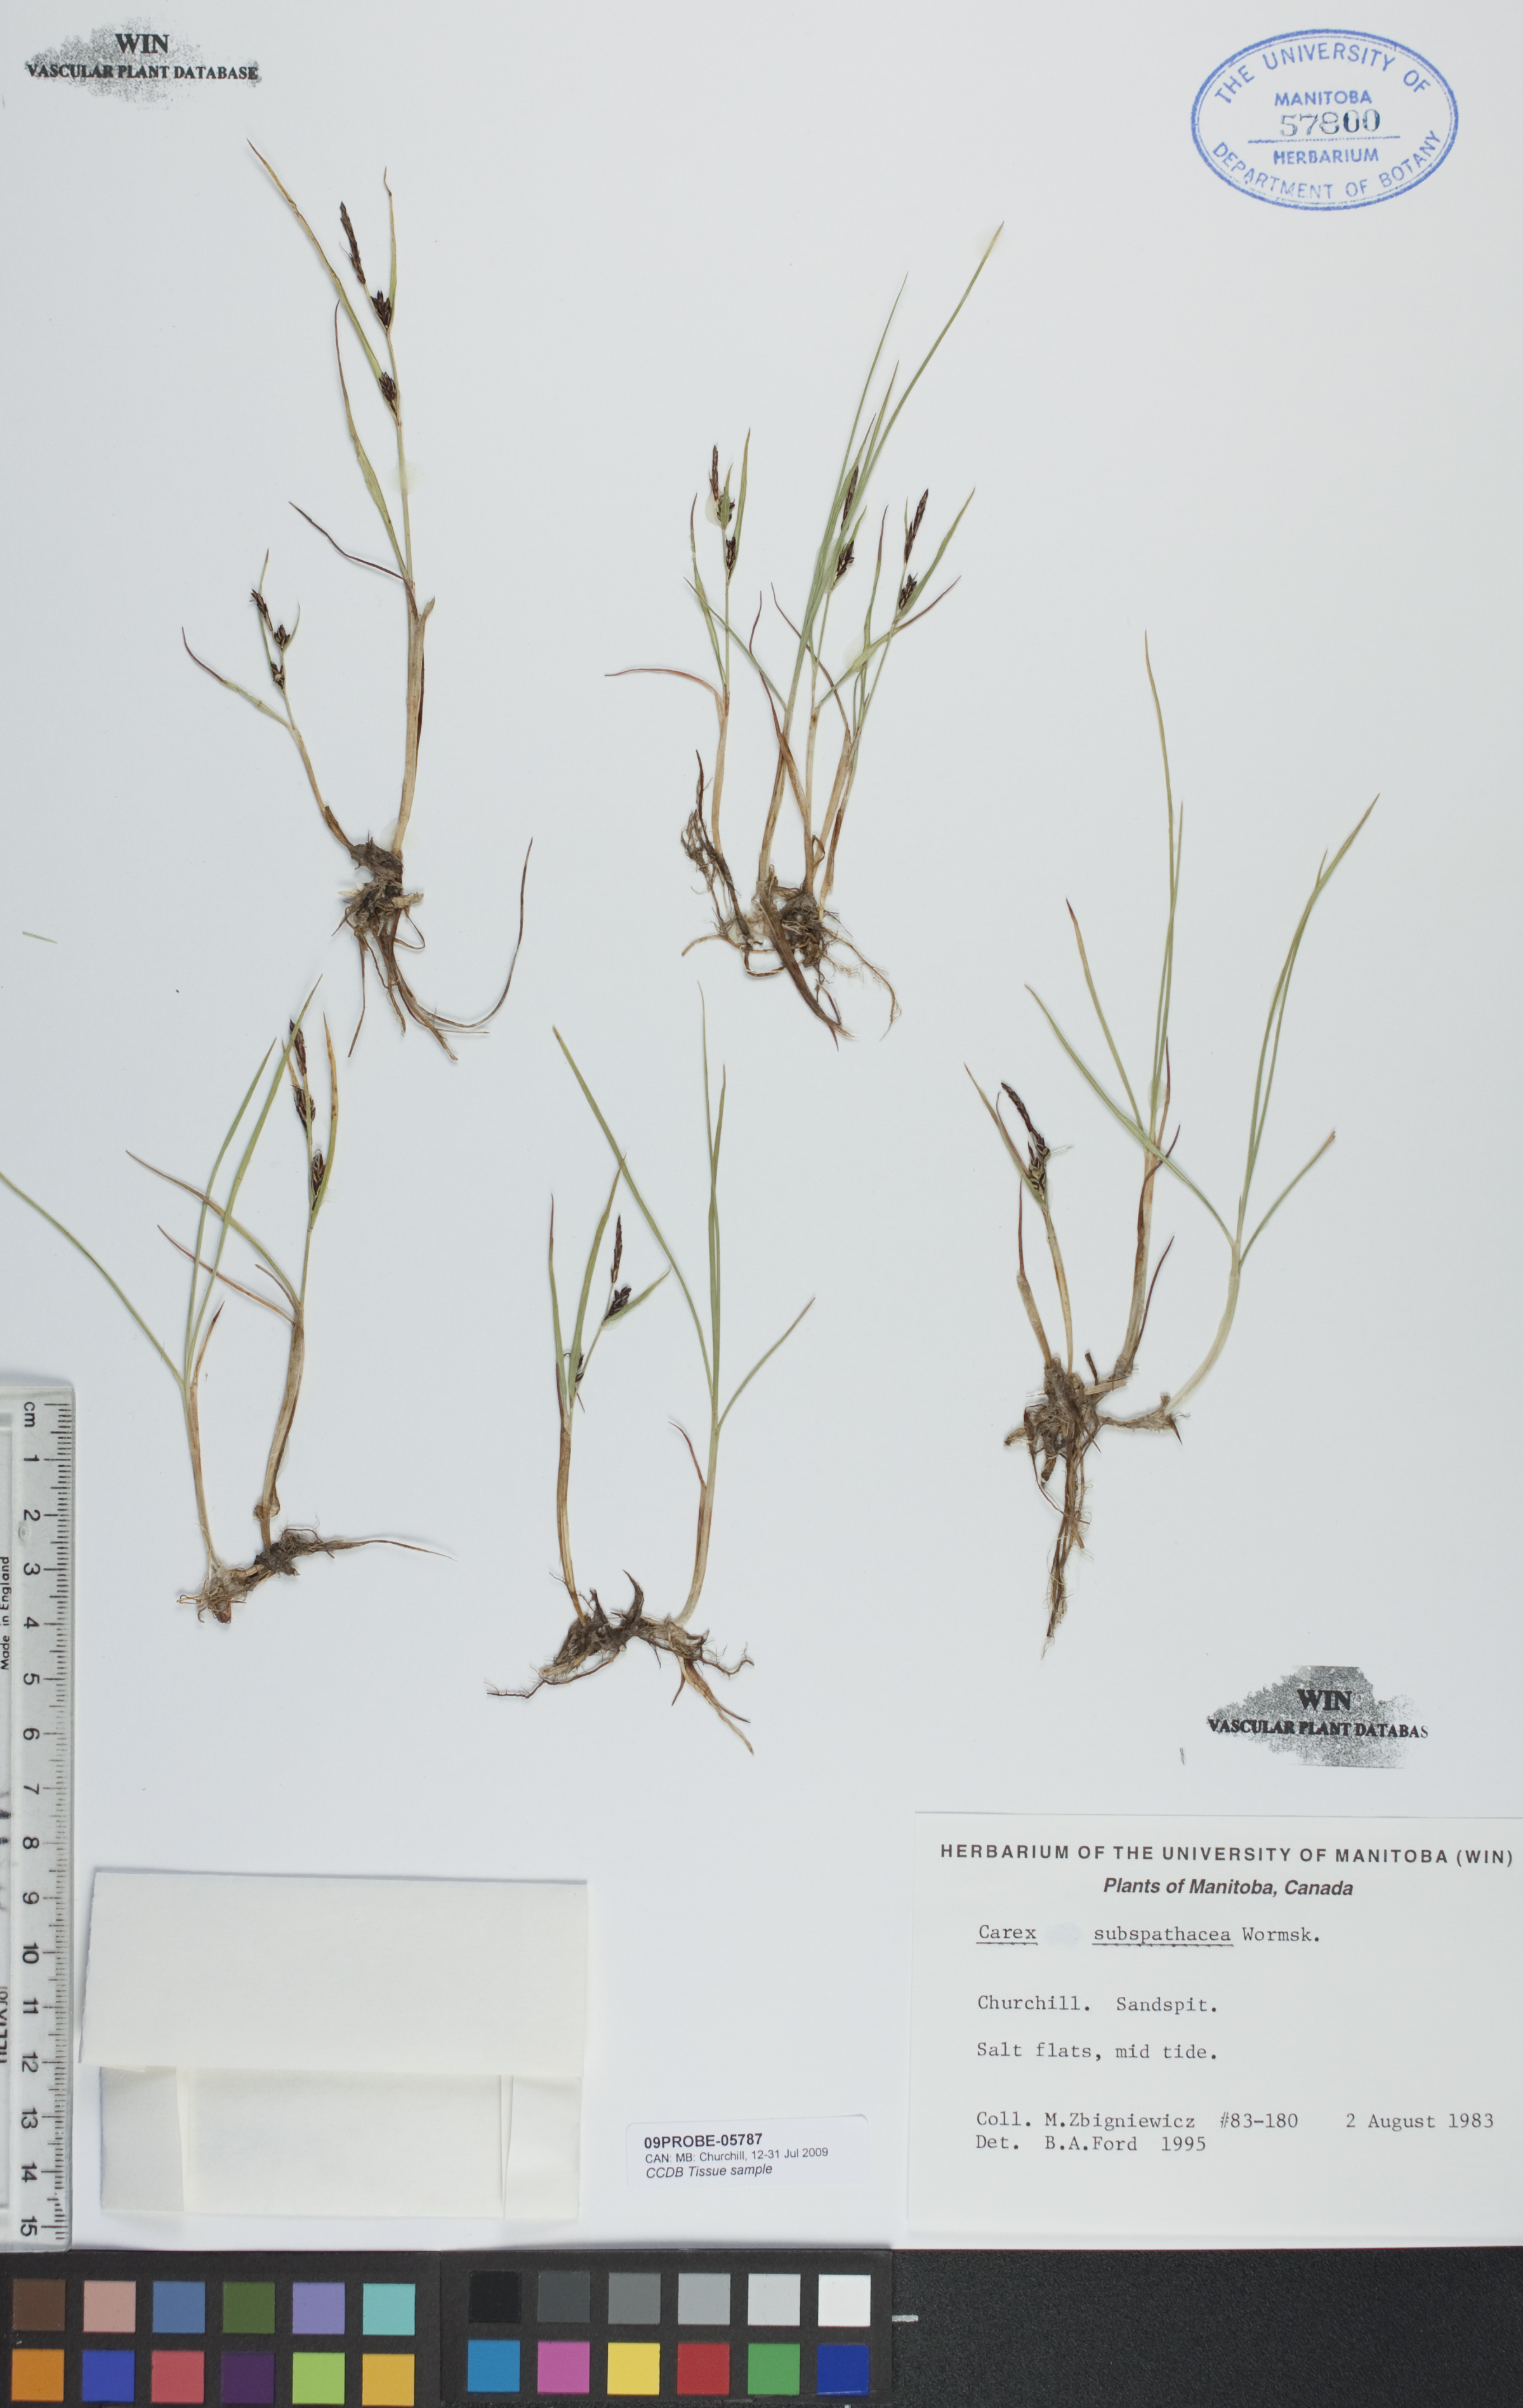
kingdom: Plantae
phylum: Tracheophyta
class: Liliopsida
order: Poales
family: Cyperaceae
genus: Carex
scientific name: Carex subspathacea
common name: Hoppner's sedge
